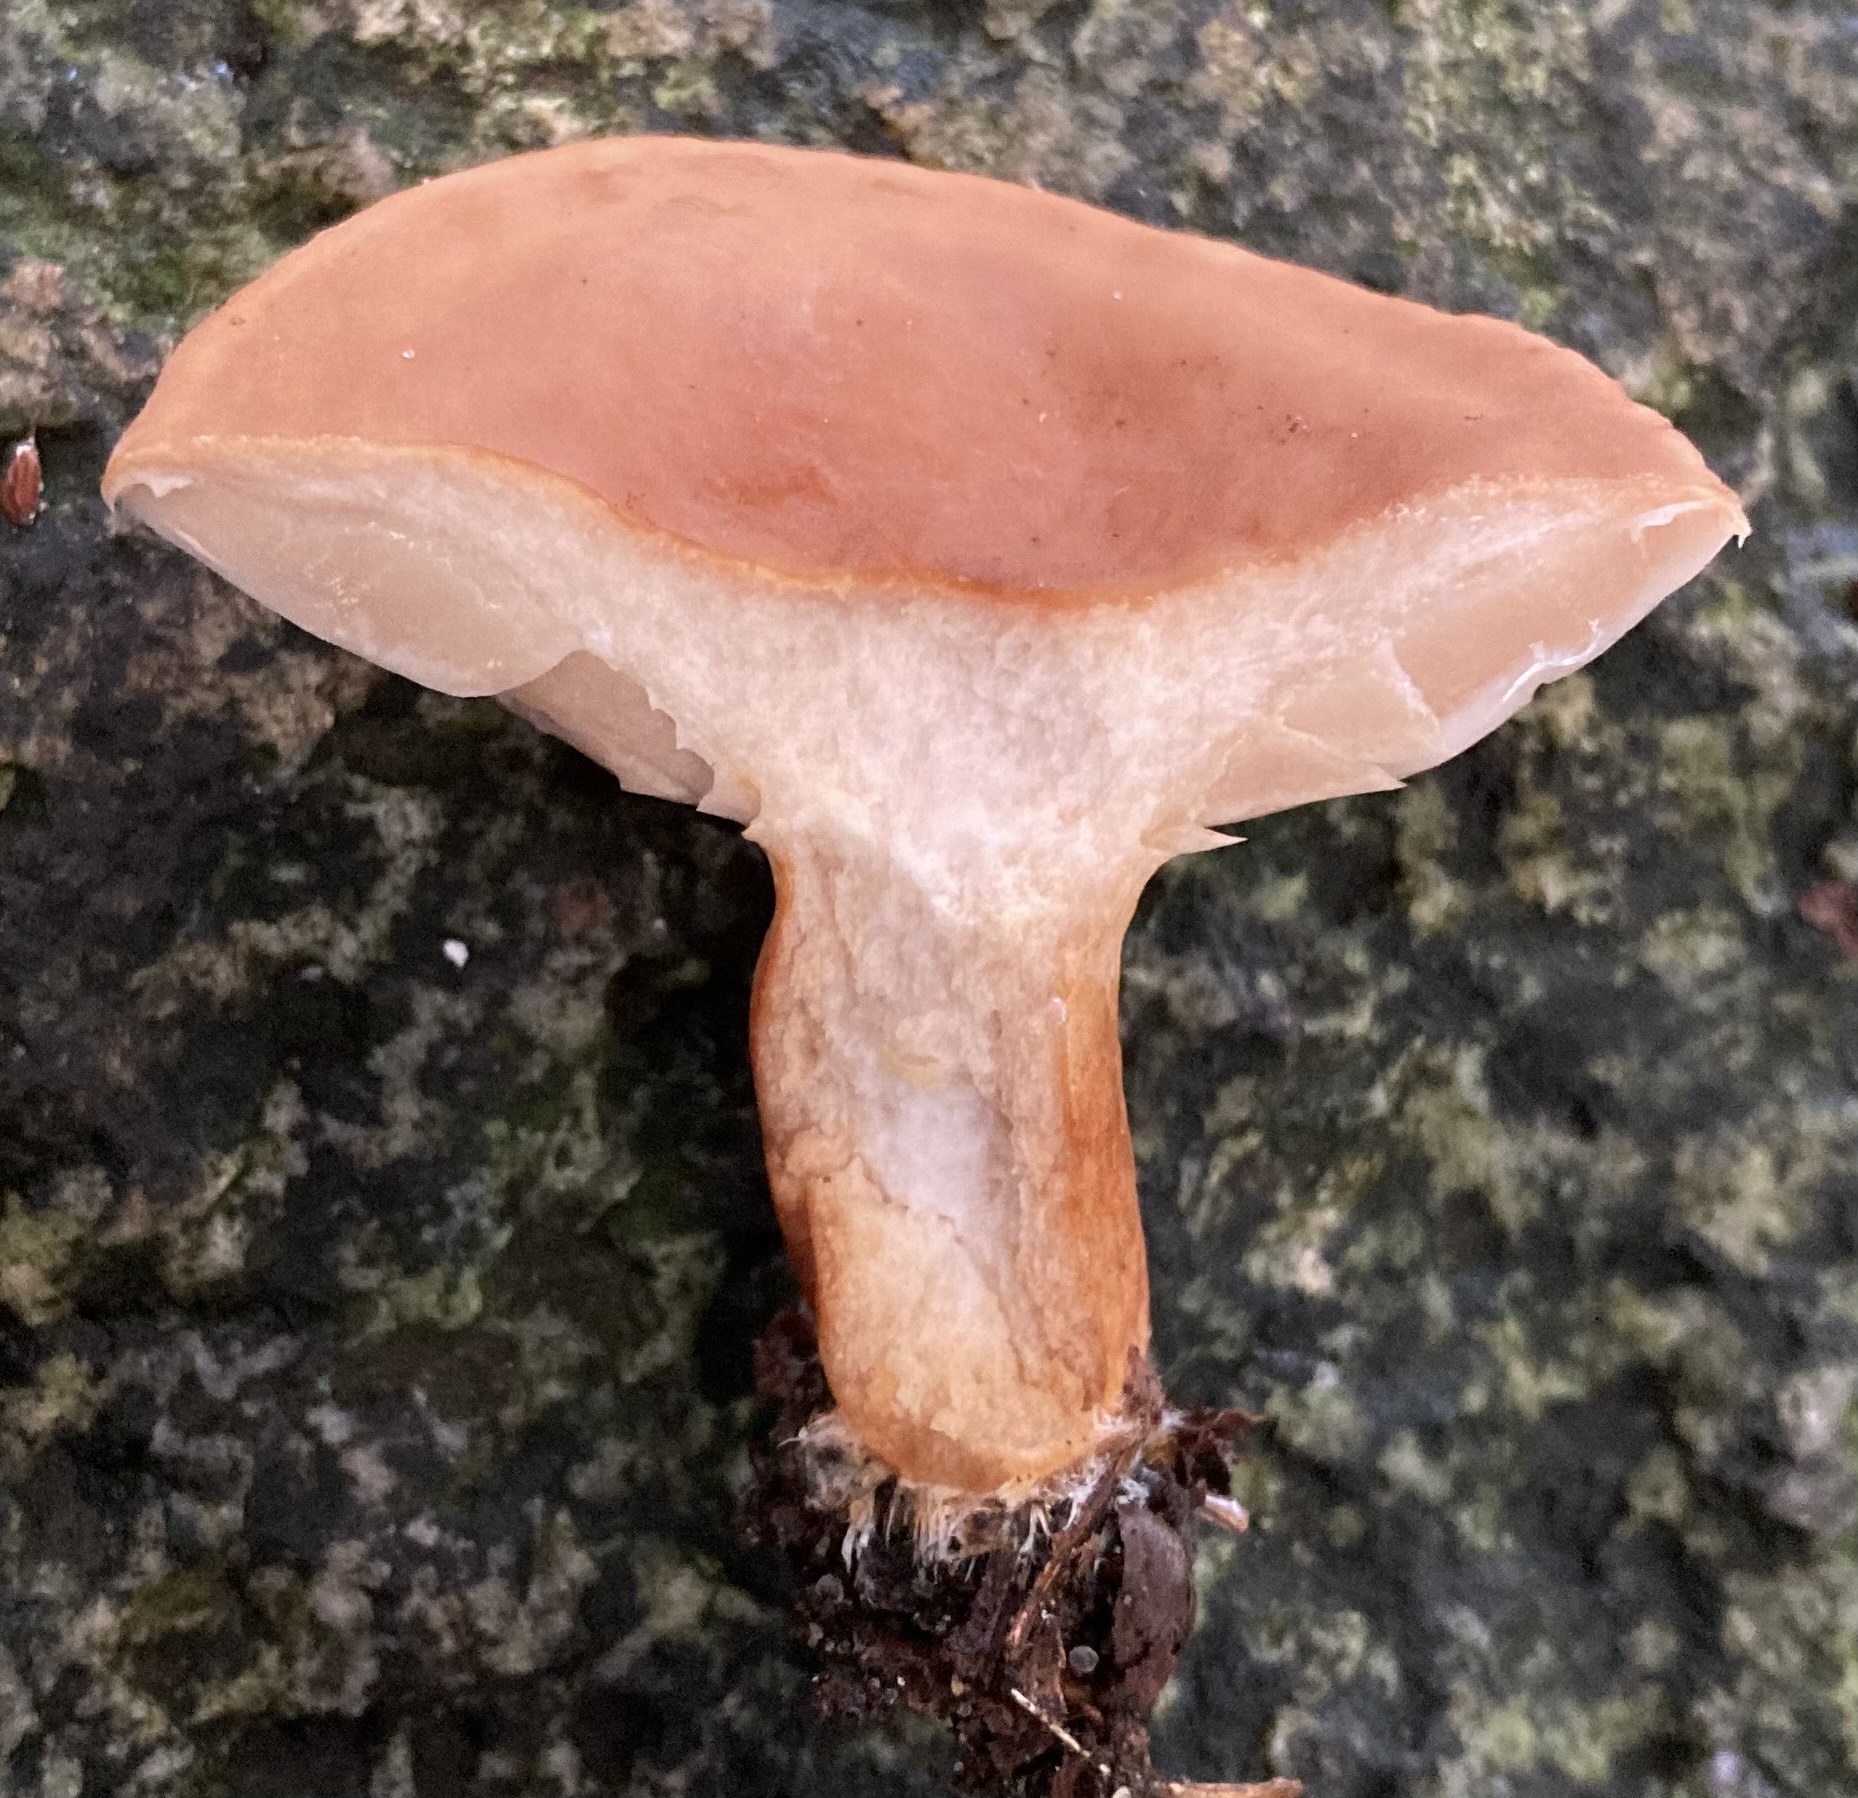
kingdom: Fungi
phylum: Basidiomycota
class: Agaricomycetes
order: Russulales
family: Russulaceae
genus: Lactarius
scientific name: Lactarius subdulcis
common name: sødlig mælkehat
